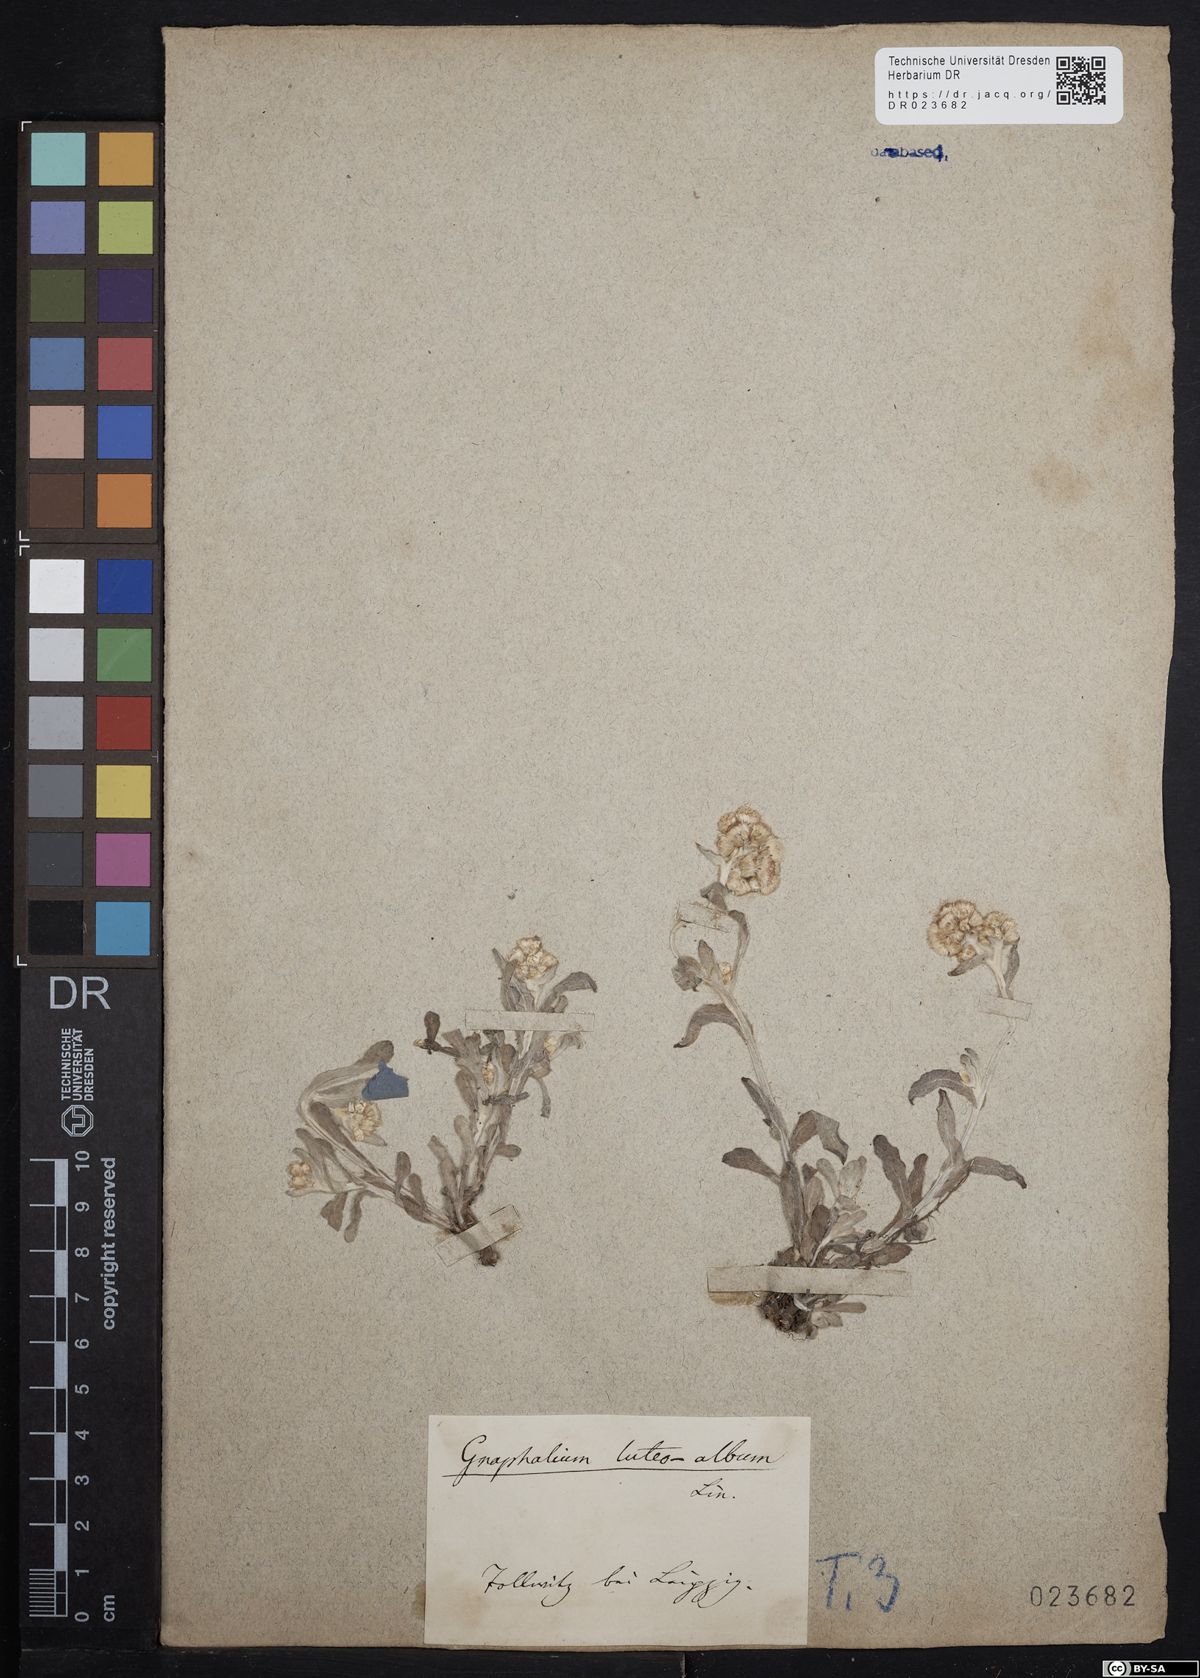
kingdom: Plantae
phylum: Tracheophyta
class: Magnoliopsida
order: Asterales
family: Asteraceae
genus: Helichrysum
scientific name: Helichrysum luteoalbum
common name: Daisy
